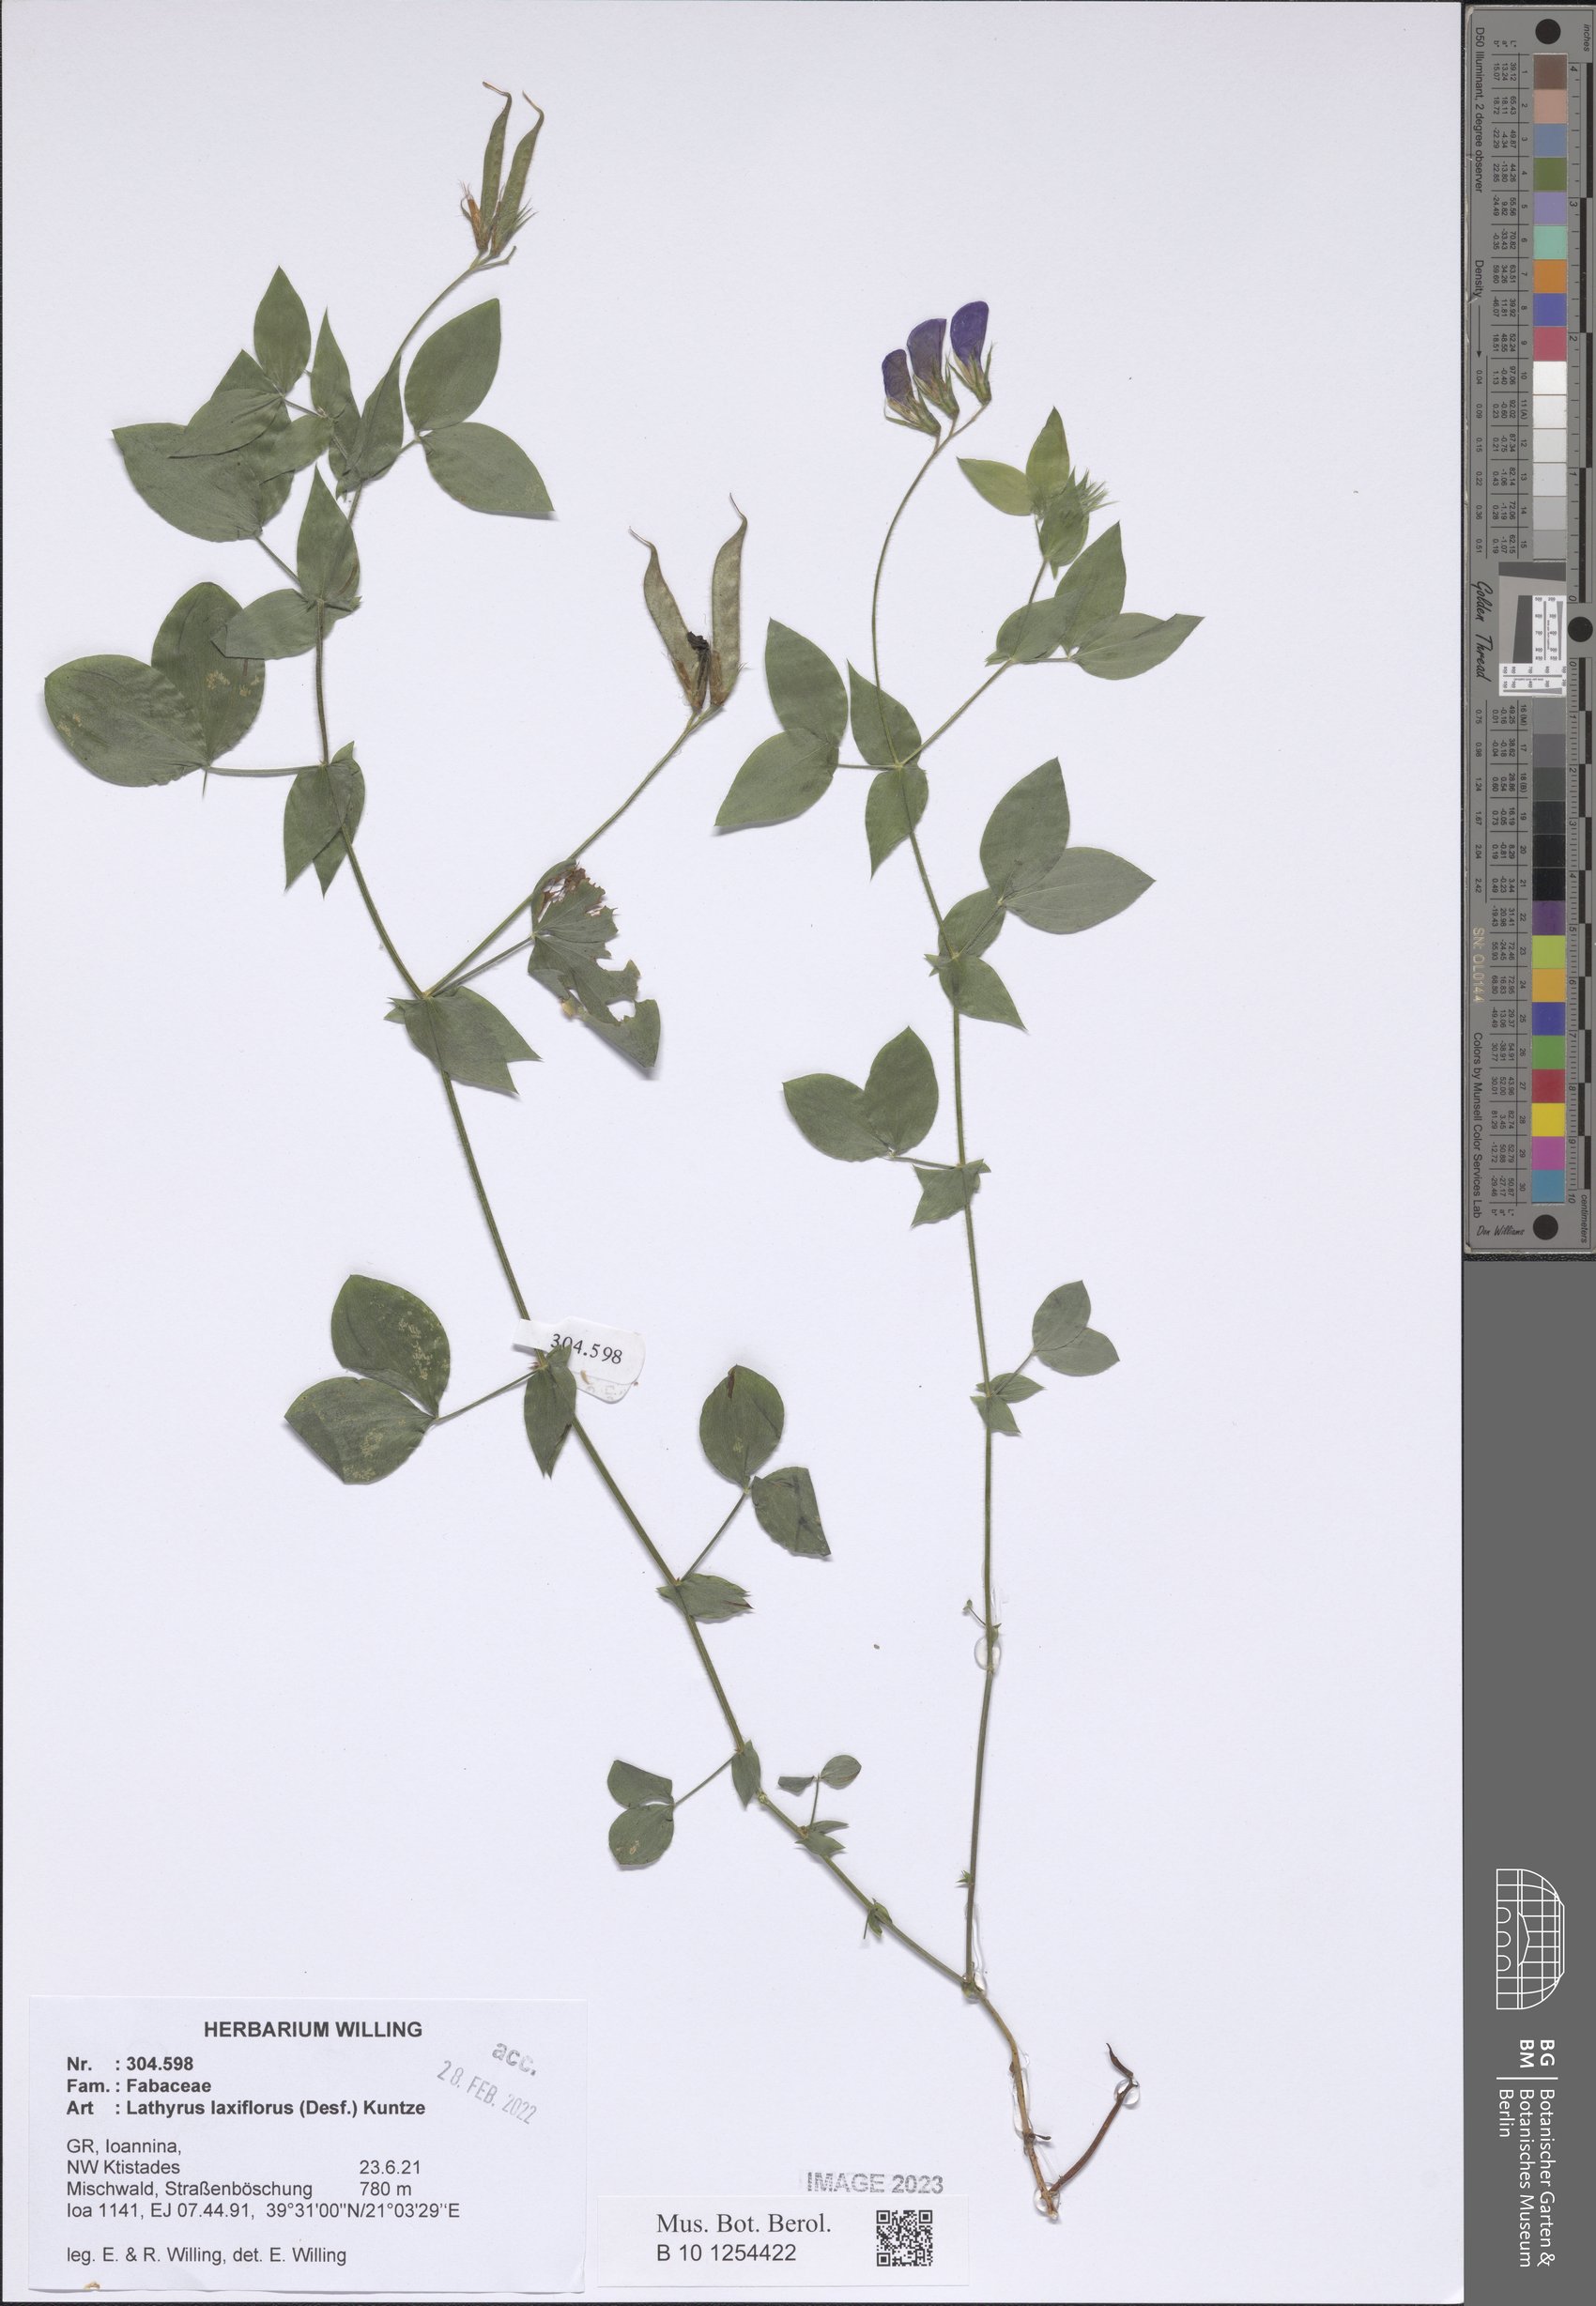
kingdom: Plantae
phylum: Tracheophyta
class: Magnoliopsida
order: Fabales
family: Fabaceae
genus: Lathyrus
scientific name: Lathyrus laxiflorus
